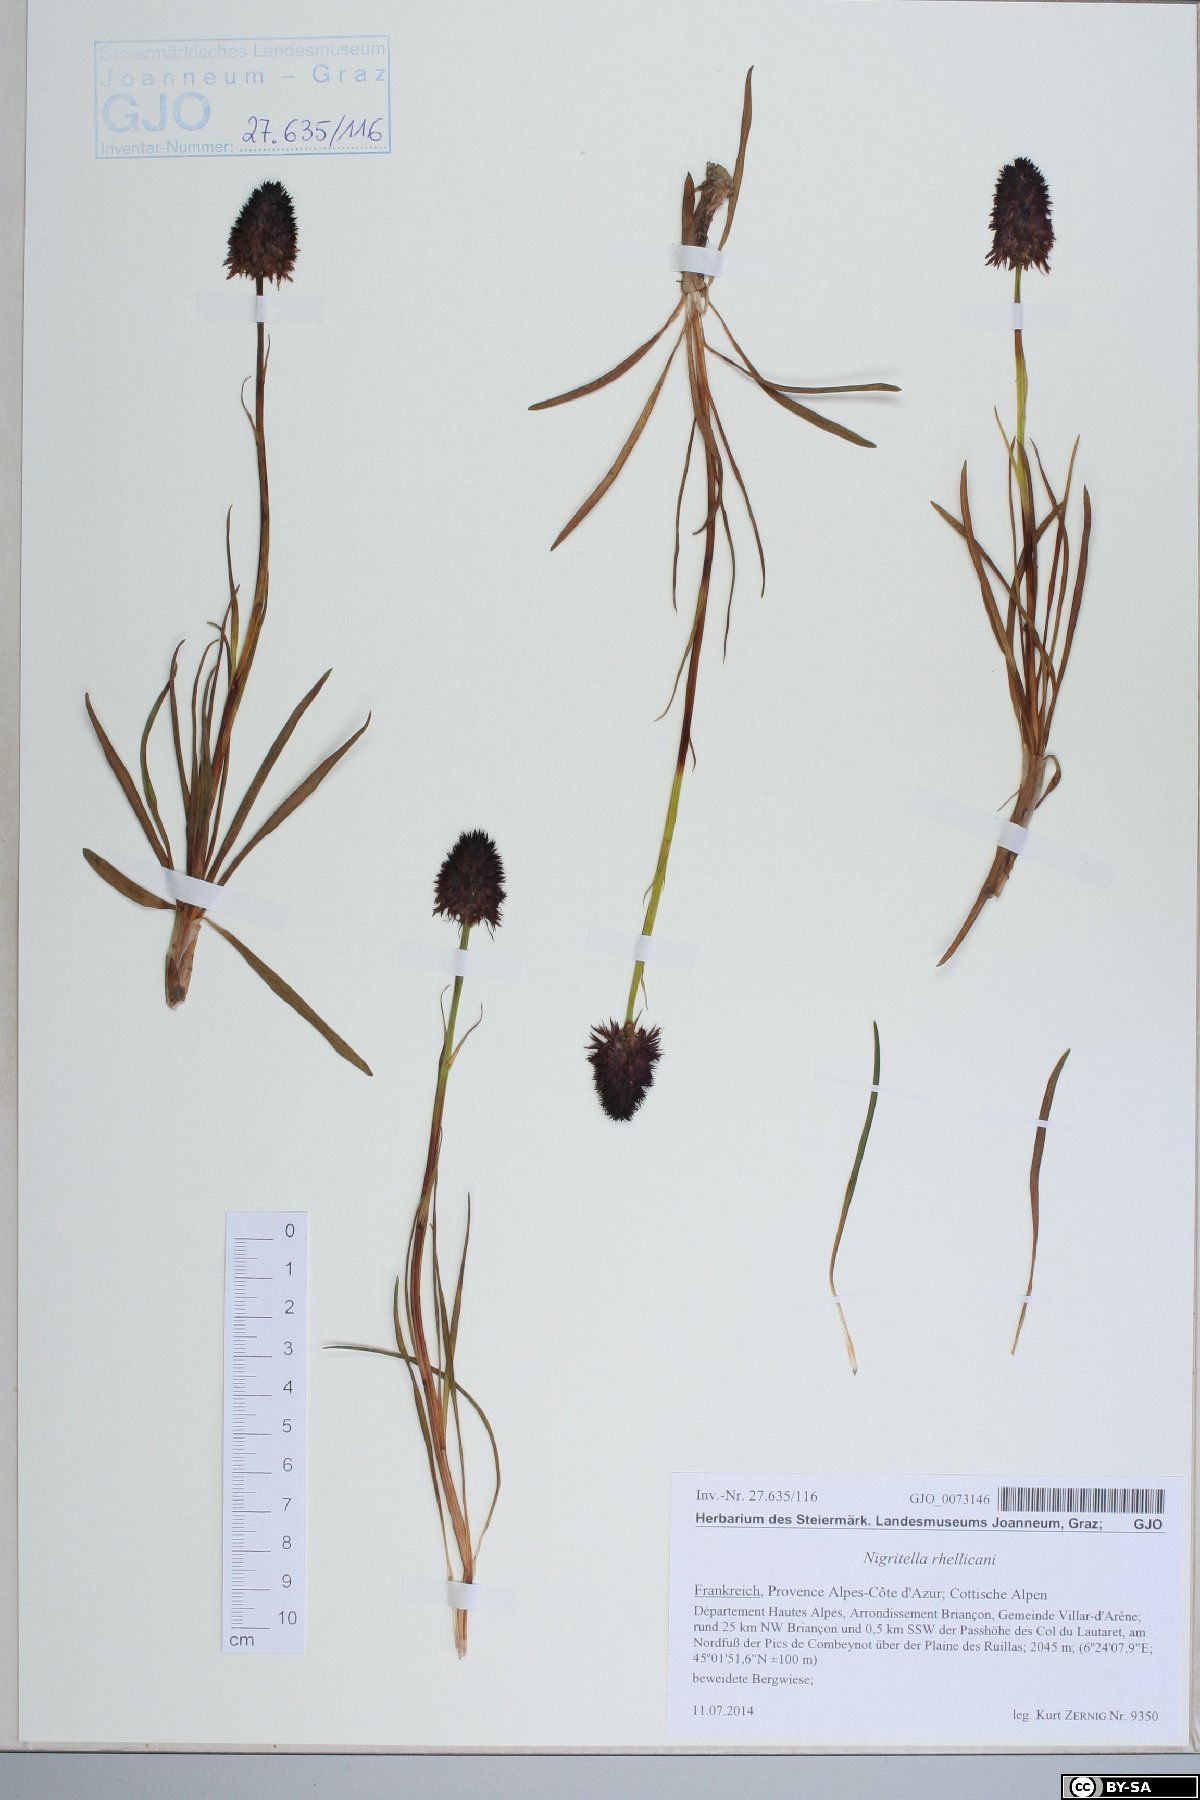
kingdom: Plantae
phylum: Tracheophyta
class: Liliopsida
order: Asparagales
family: Orchidaceae
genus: Gymnadenia
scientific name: Gymnadenia rhellicani
